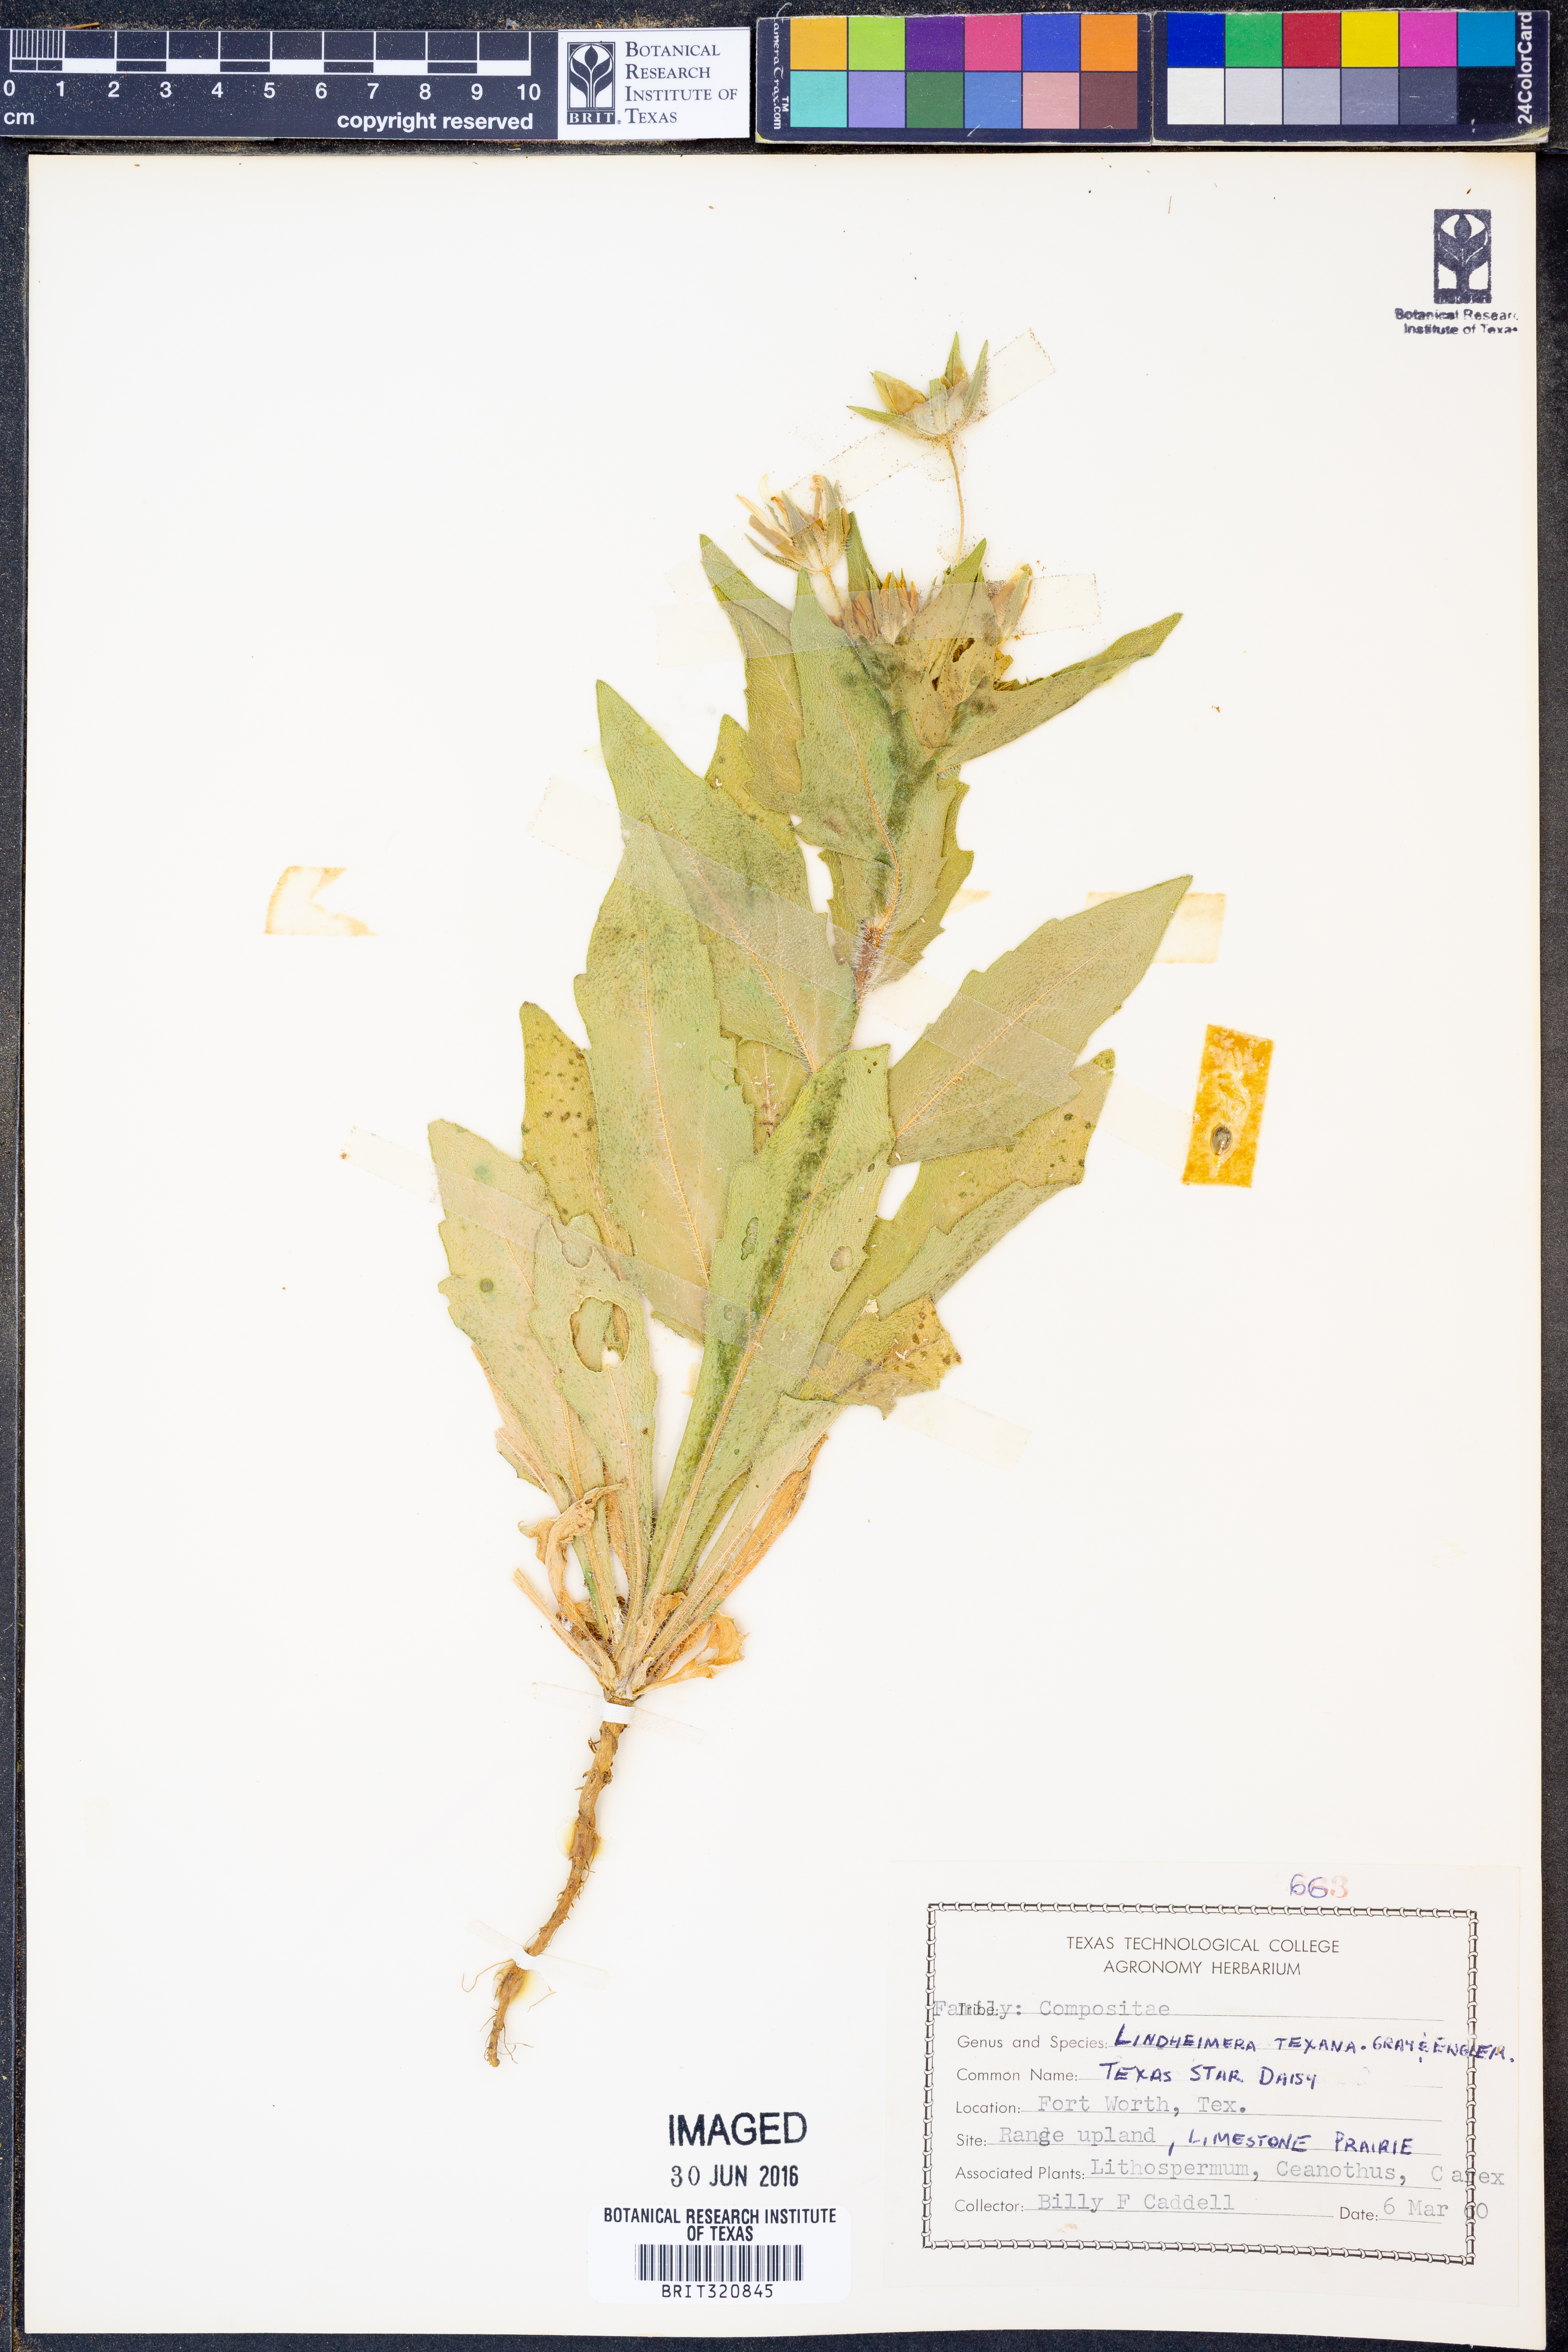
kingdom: Plantae
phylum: Tracheophyta
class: Magnoliopsida
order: Asterales
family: Asteraceae
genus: Lindheimera
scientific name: Lindheimera texana
